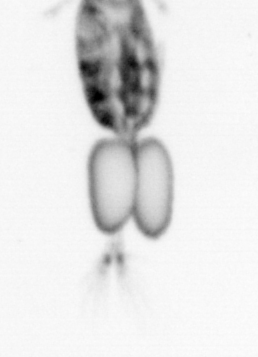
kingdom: Animalia
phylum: Arthropoda
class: Copepoda
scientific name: Copepoda
